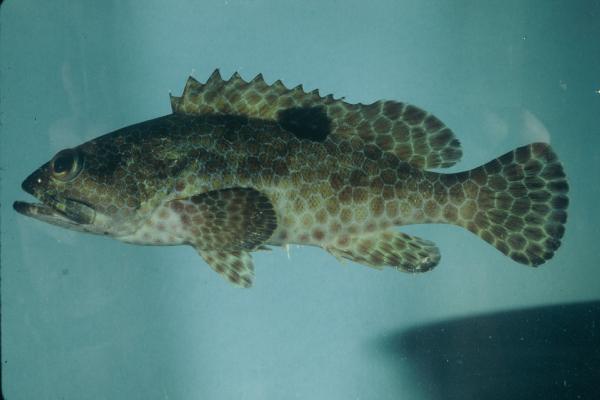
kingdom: Animalia
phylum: Chordata
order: Perciformes
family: Serranidae
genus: Epinephelus
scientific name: Epinephelus melanostigma
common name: Blackspot grouper
